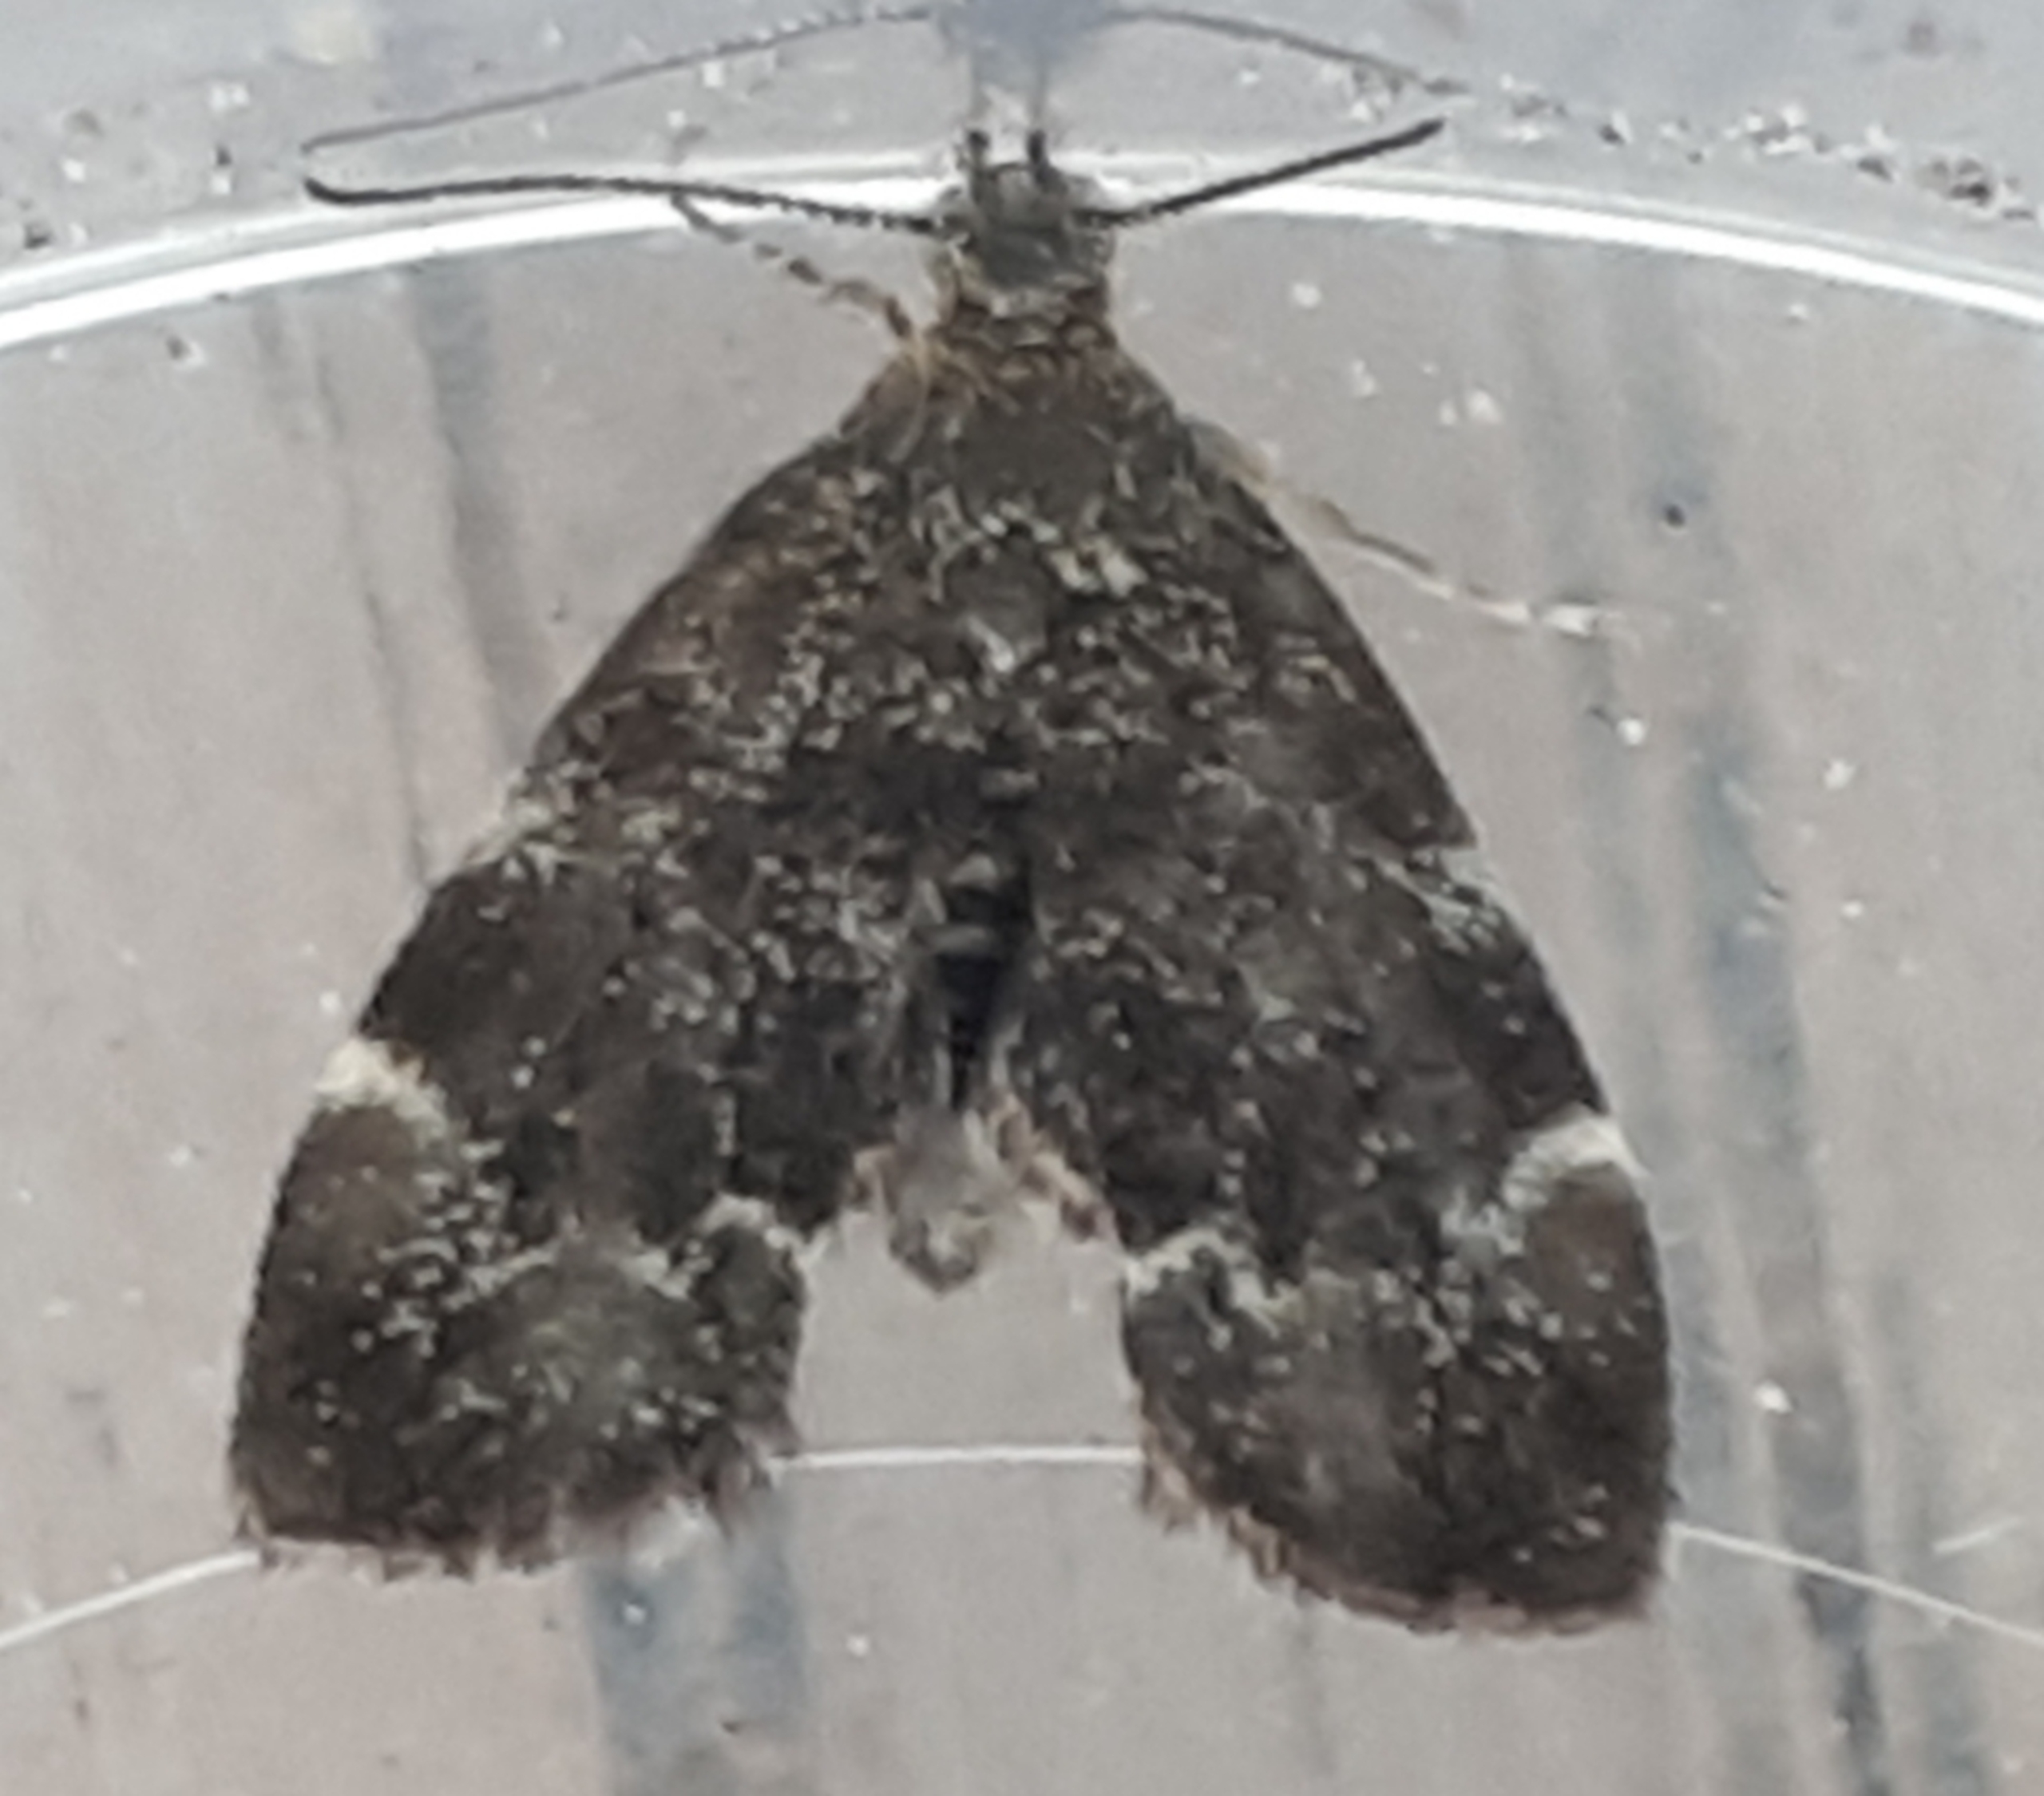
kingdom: Animalia
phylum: Arthropoda
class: Insecta
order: Lepidoptera
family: Choreutidae
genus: Anthophila
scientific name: Anthophila fabriciana
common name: Bredvinget nældevikler
